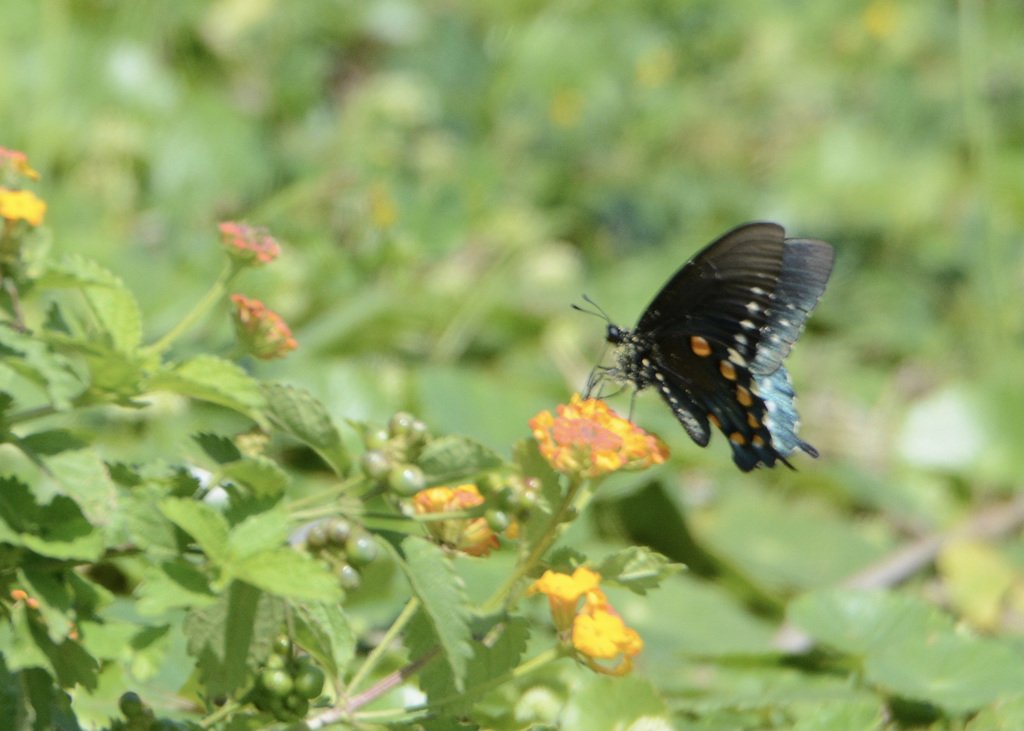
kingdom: Animalia
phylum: Arthropoda
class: Insecta
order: Lepidoptera
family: Papilionidae
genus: Battus
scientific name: Battus philenor
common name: Pipevine Swallowtail
